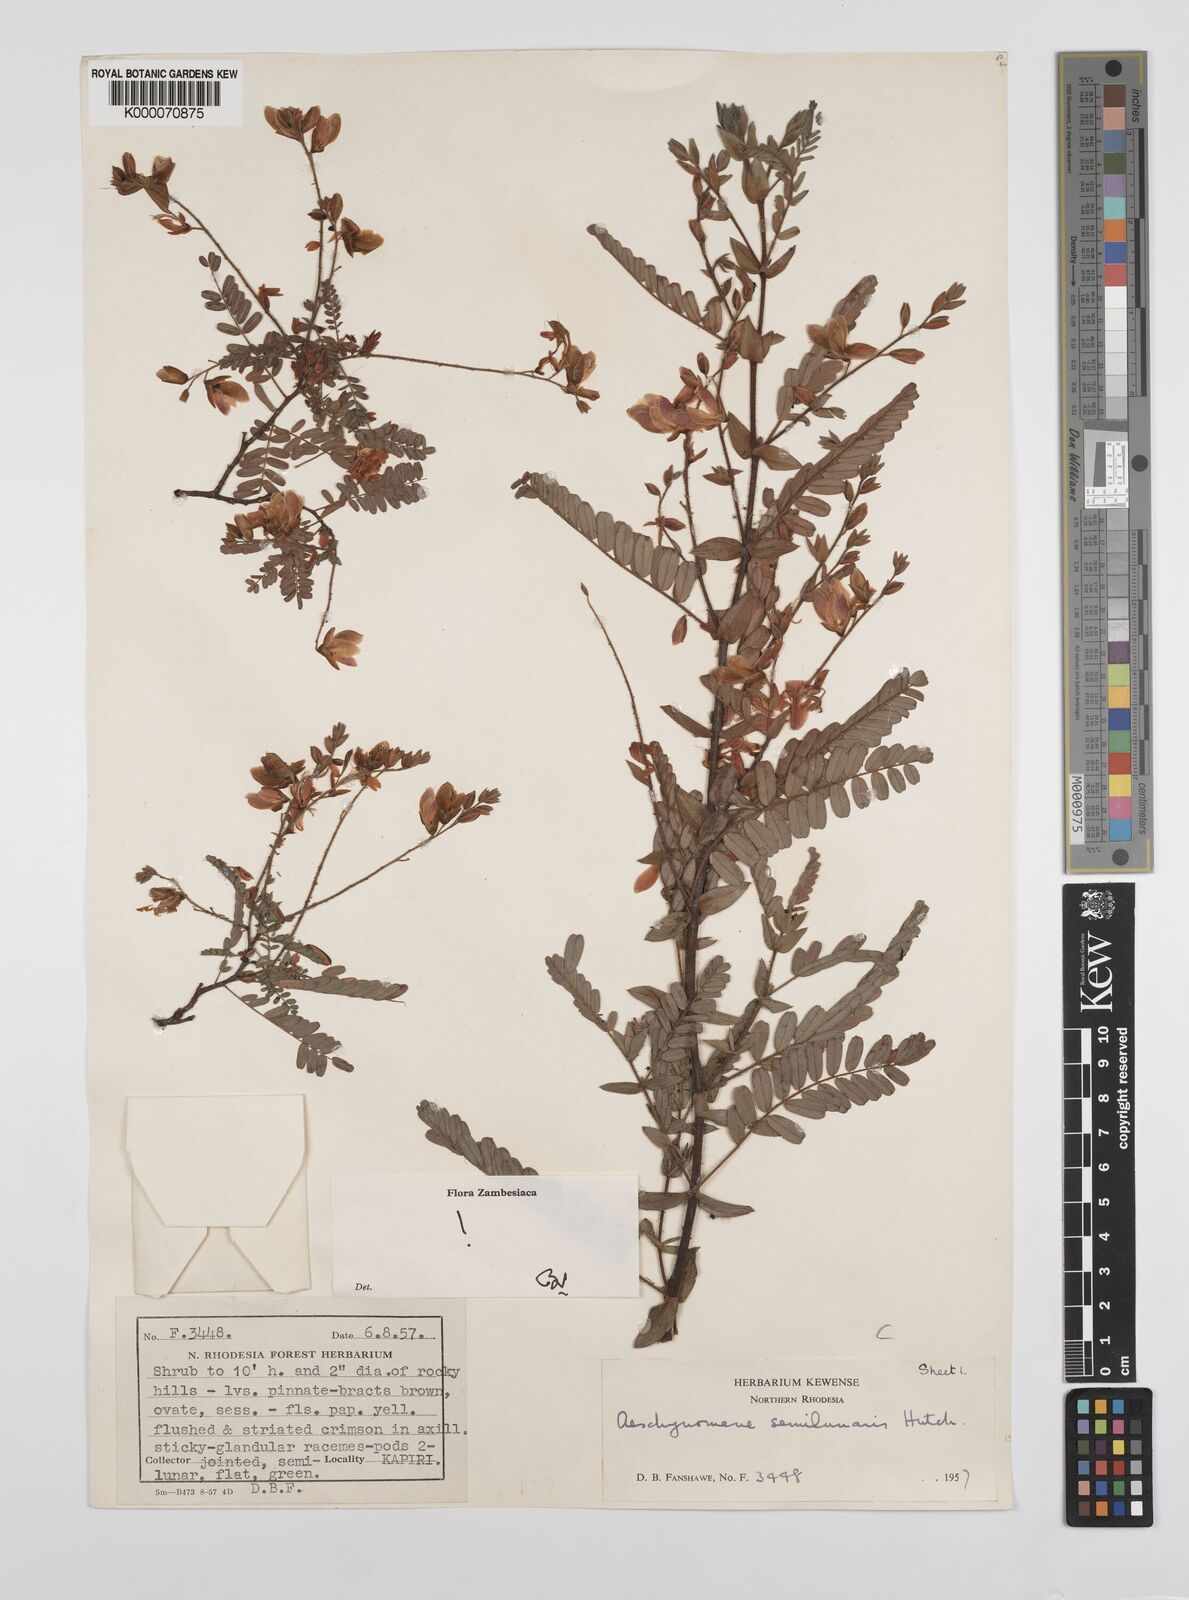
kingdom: Plantae
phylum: Tracheophyta
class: Magnoliopsida
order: Fabales
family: Fabaceae
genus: Aeschynomene
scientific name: Aeschynomene semilunaris
